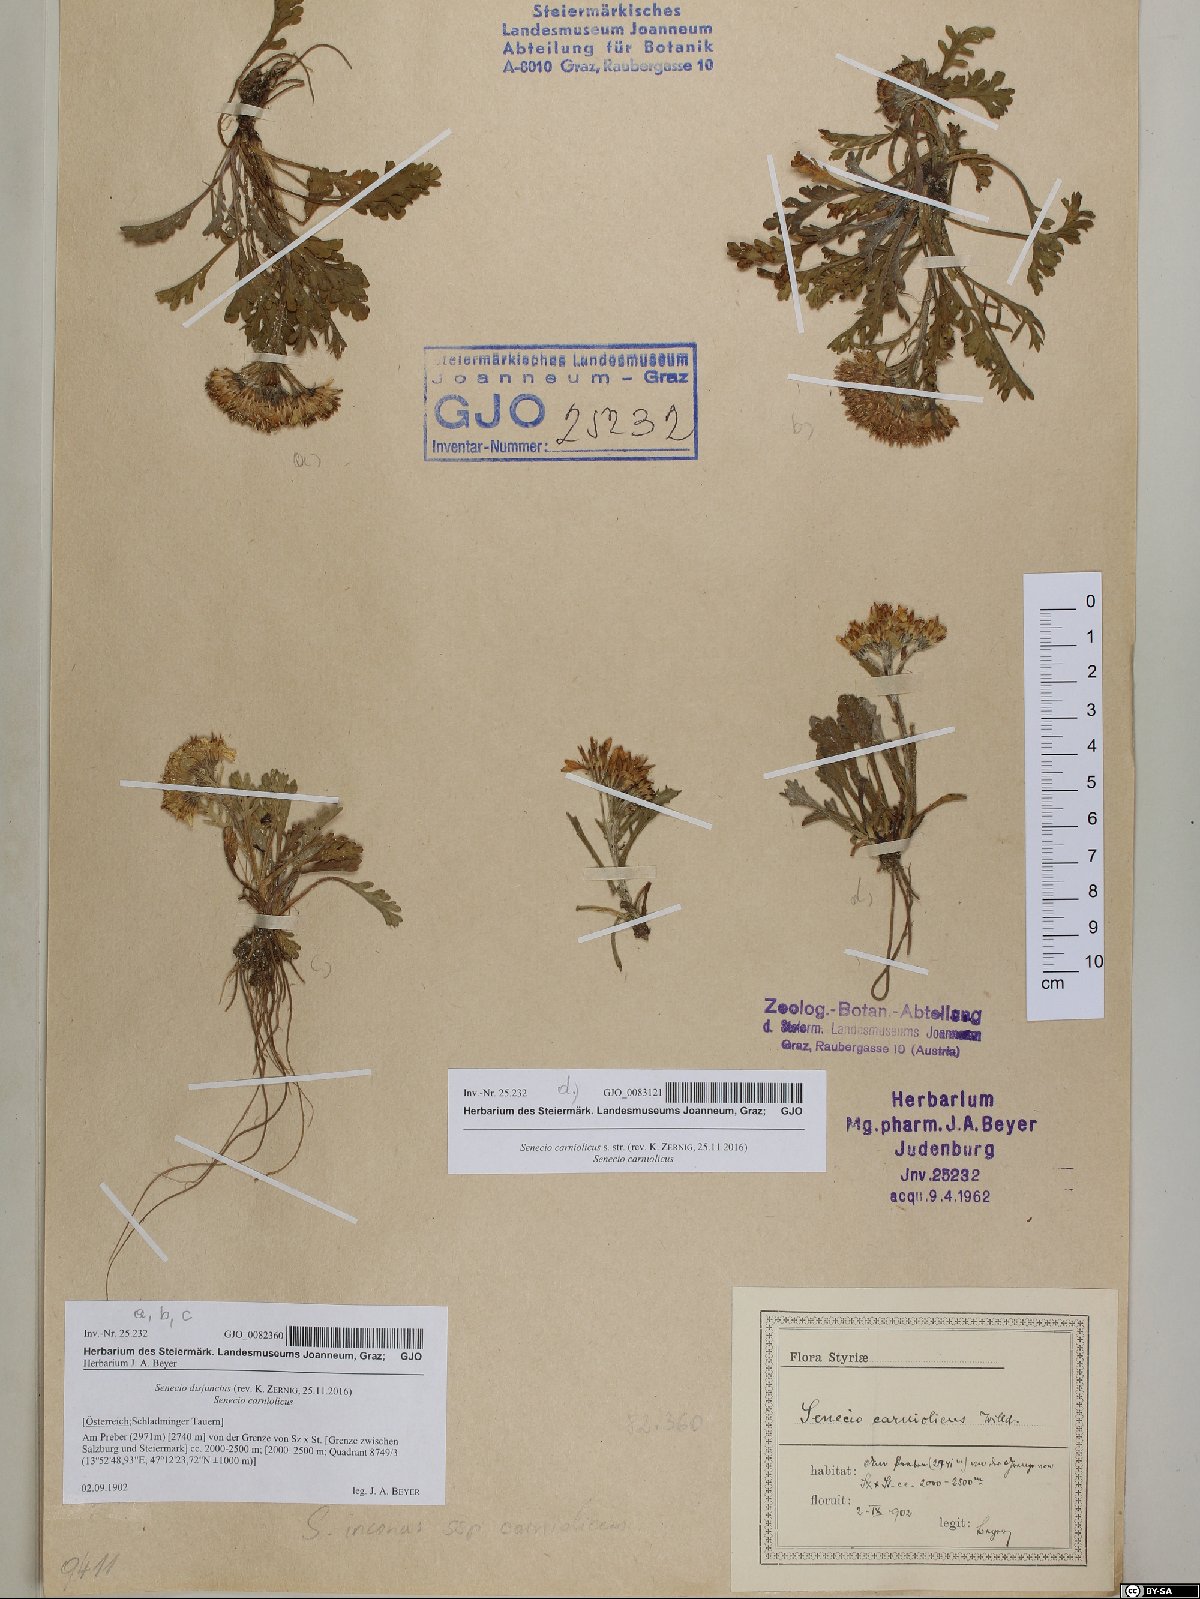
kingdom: Plantae
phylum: Tracheophyta
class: Magnoliopsida
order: Asterales
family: Asteraceae
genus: Jacobaea
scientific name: Jacobaea disjuncta
